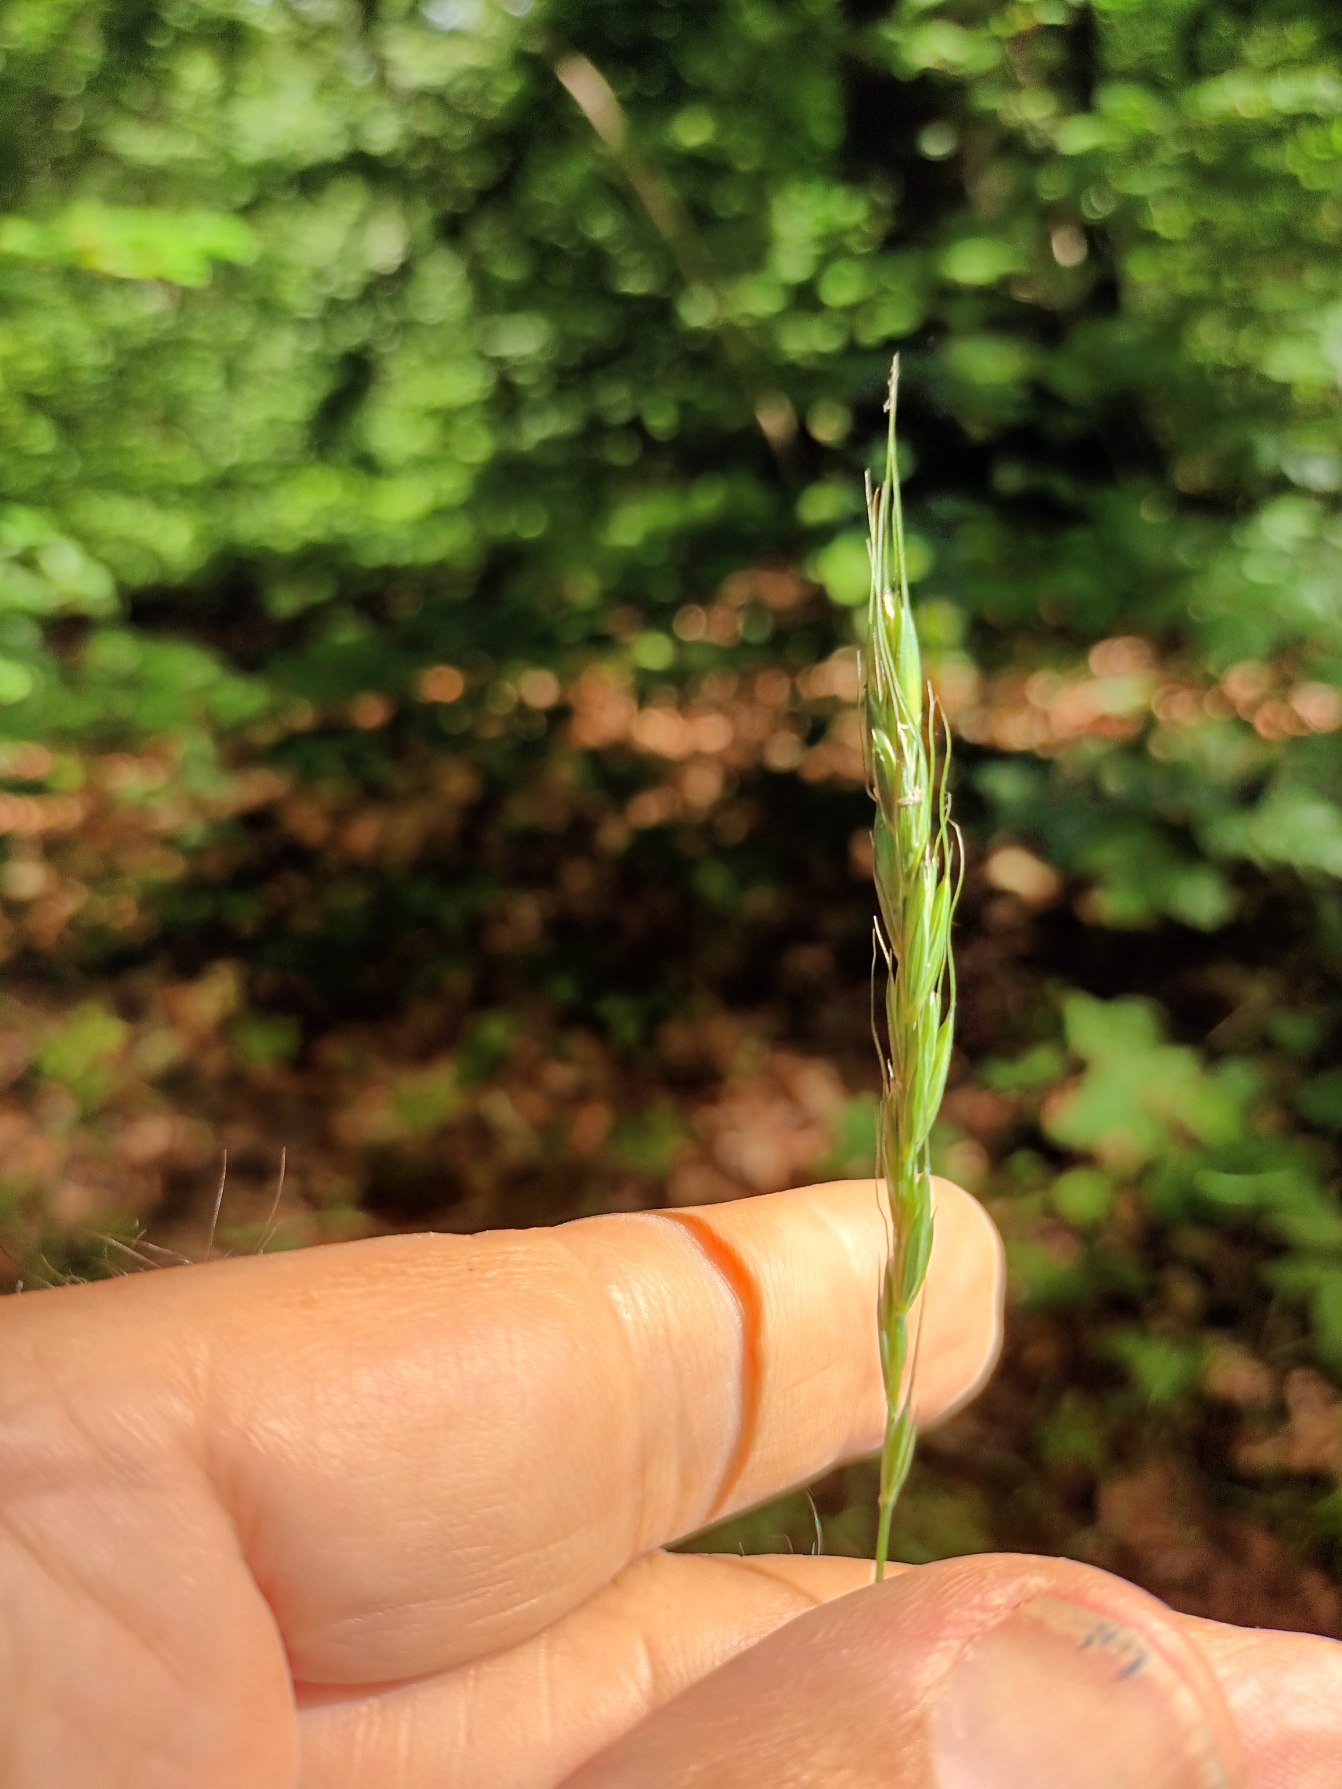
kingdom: Plantae
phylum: Tracheophyta
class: Liliopsida
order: Poales
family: Poaceae
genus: Elymus
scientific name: Elymus caninus
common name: Hundekvik
